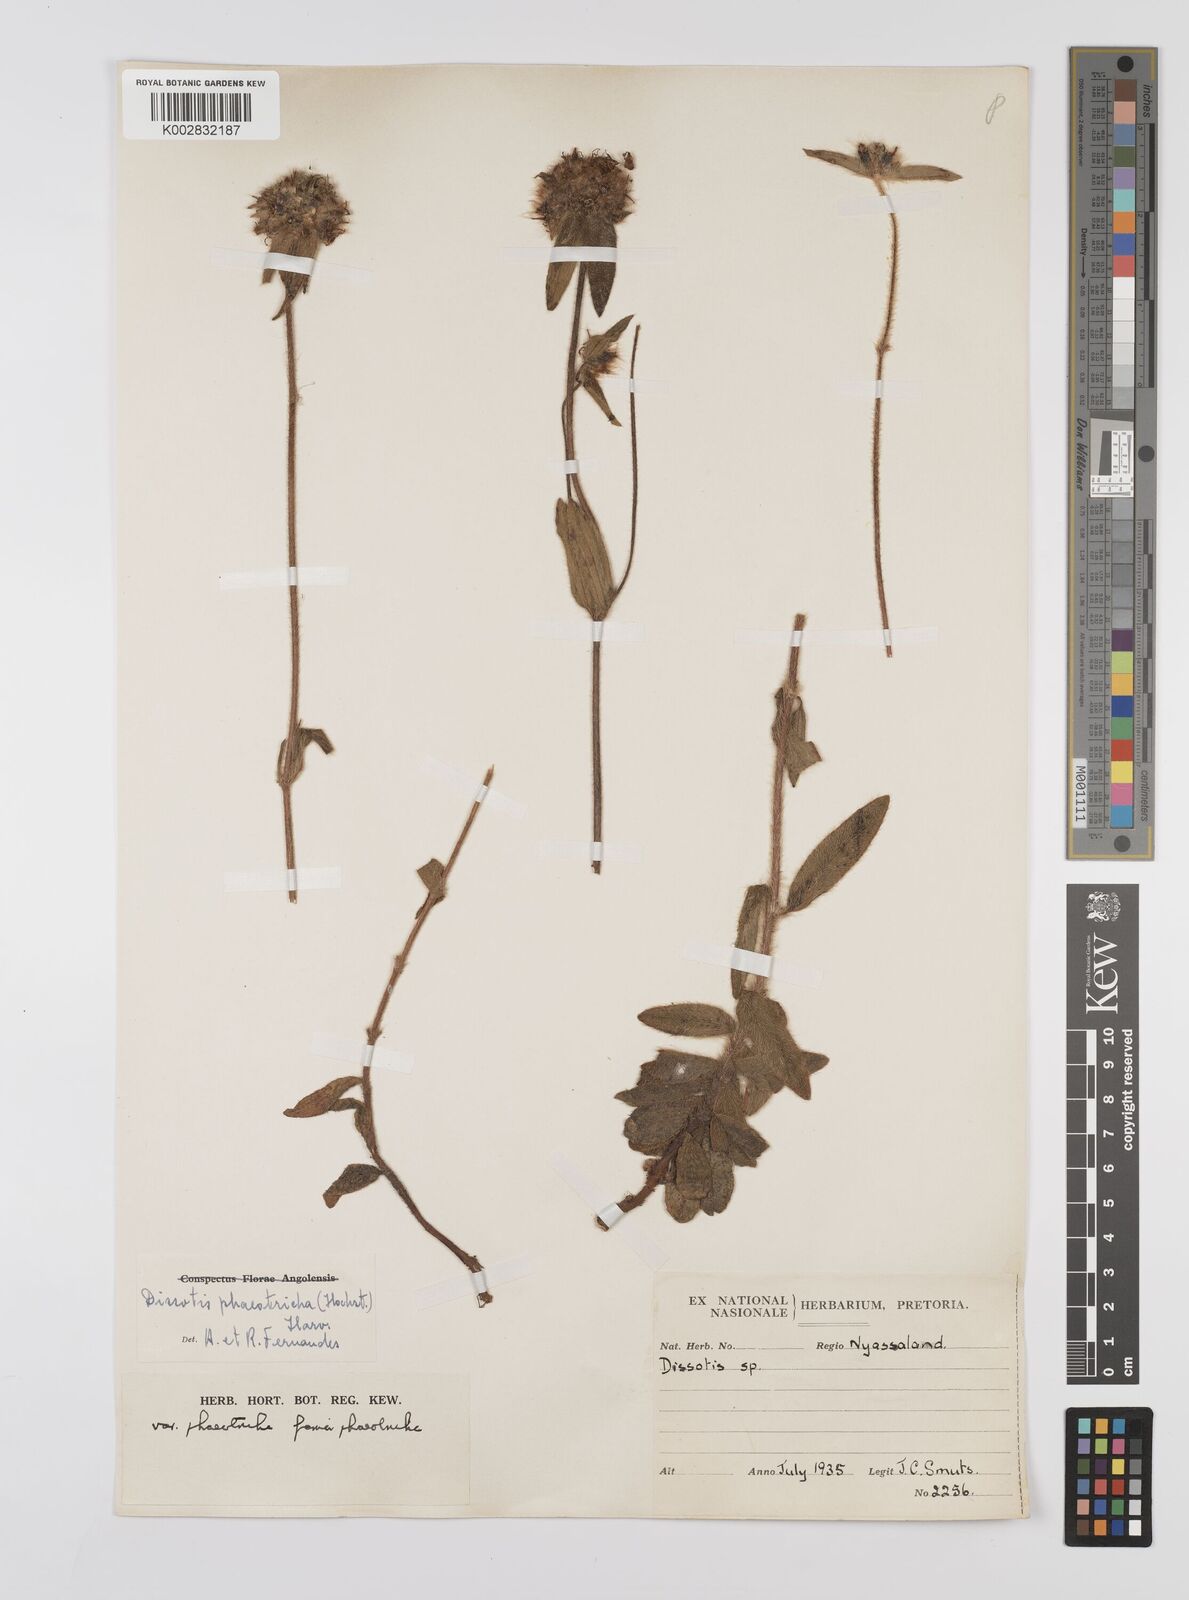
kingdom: Plantae
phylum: Tracheophyta
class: Magnoliopsida
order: Myrtales
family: Melastomataceae
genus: Antherotoma
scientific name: Antherotoma phaeotricha
